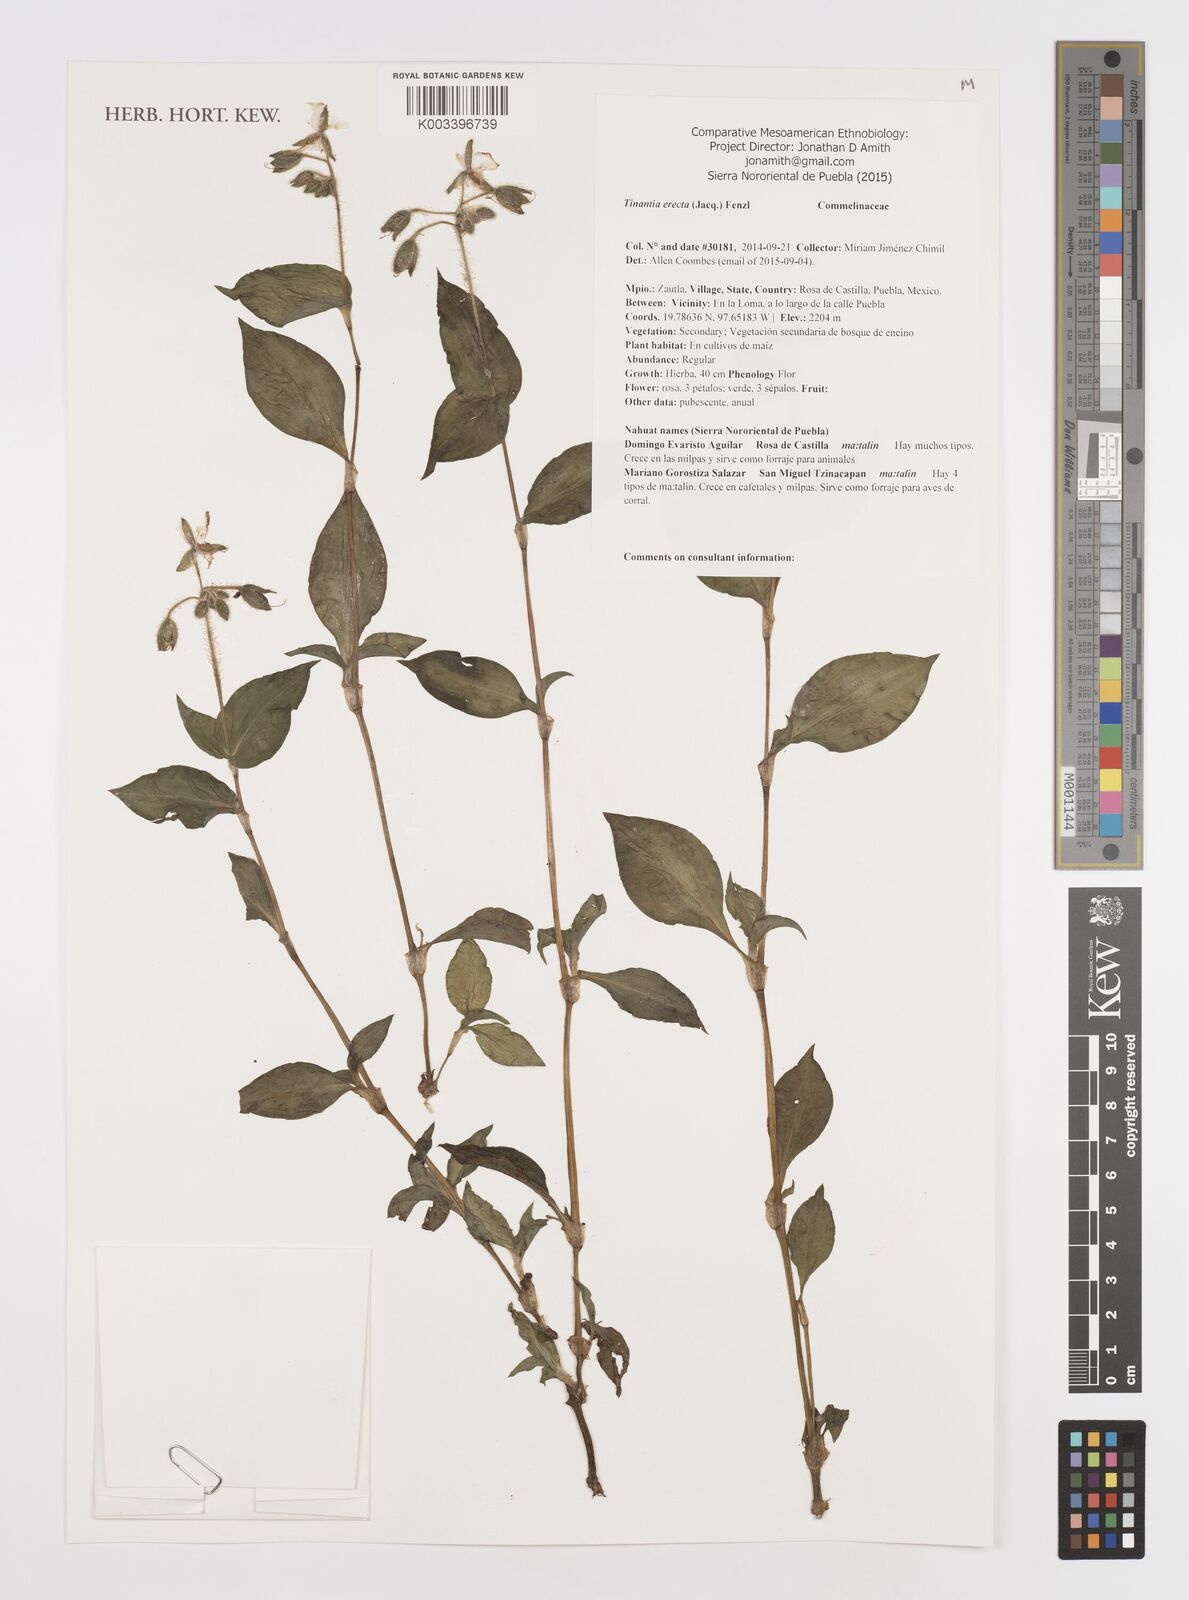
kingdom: Plantae
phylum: Tracheophyta
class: Liliopsida
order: Commelinales
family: Commelinaceae
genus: Tinantia
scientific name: Tinantia erecta
